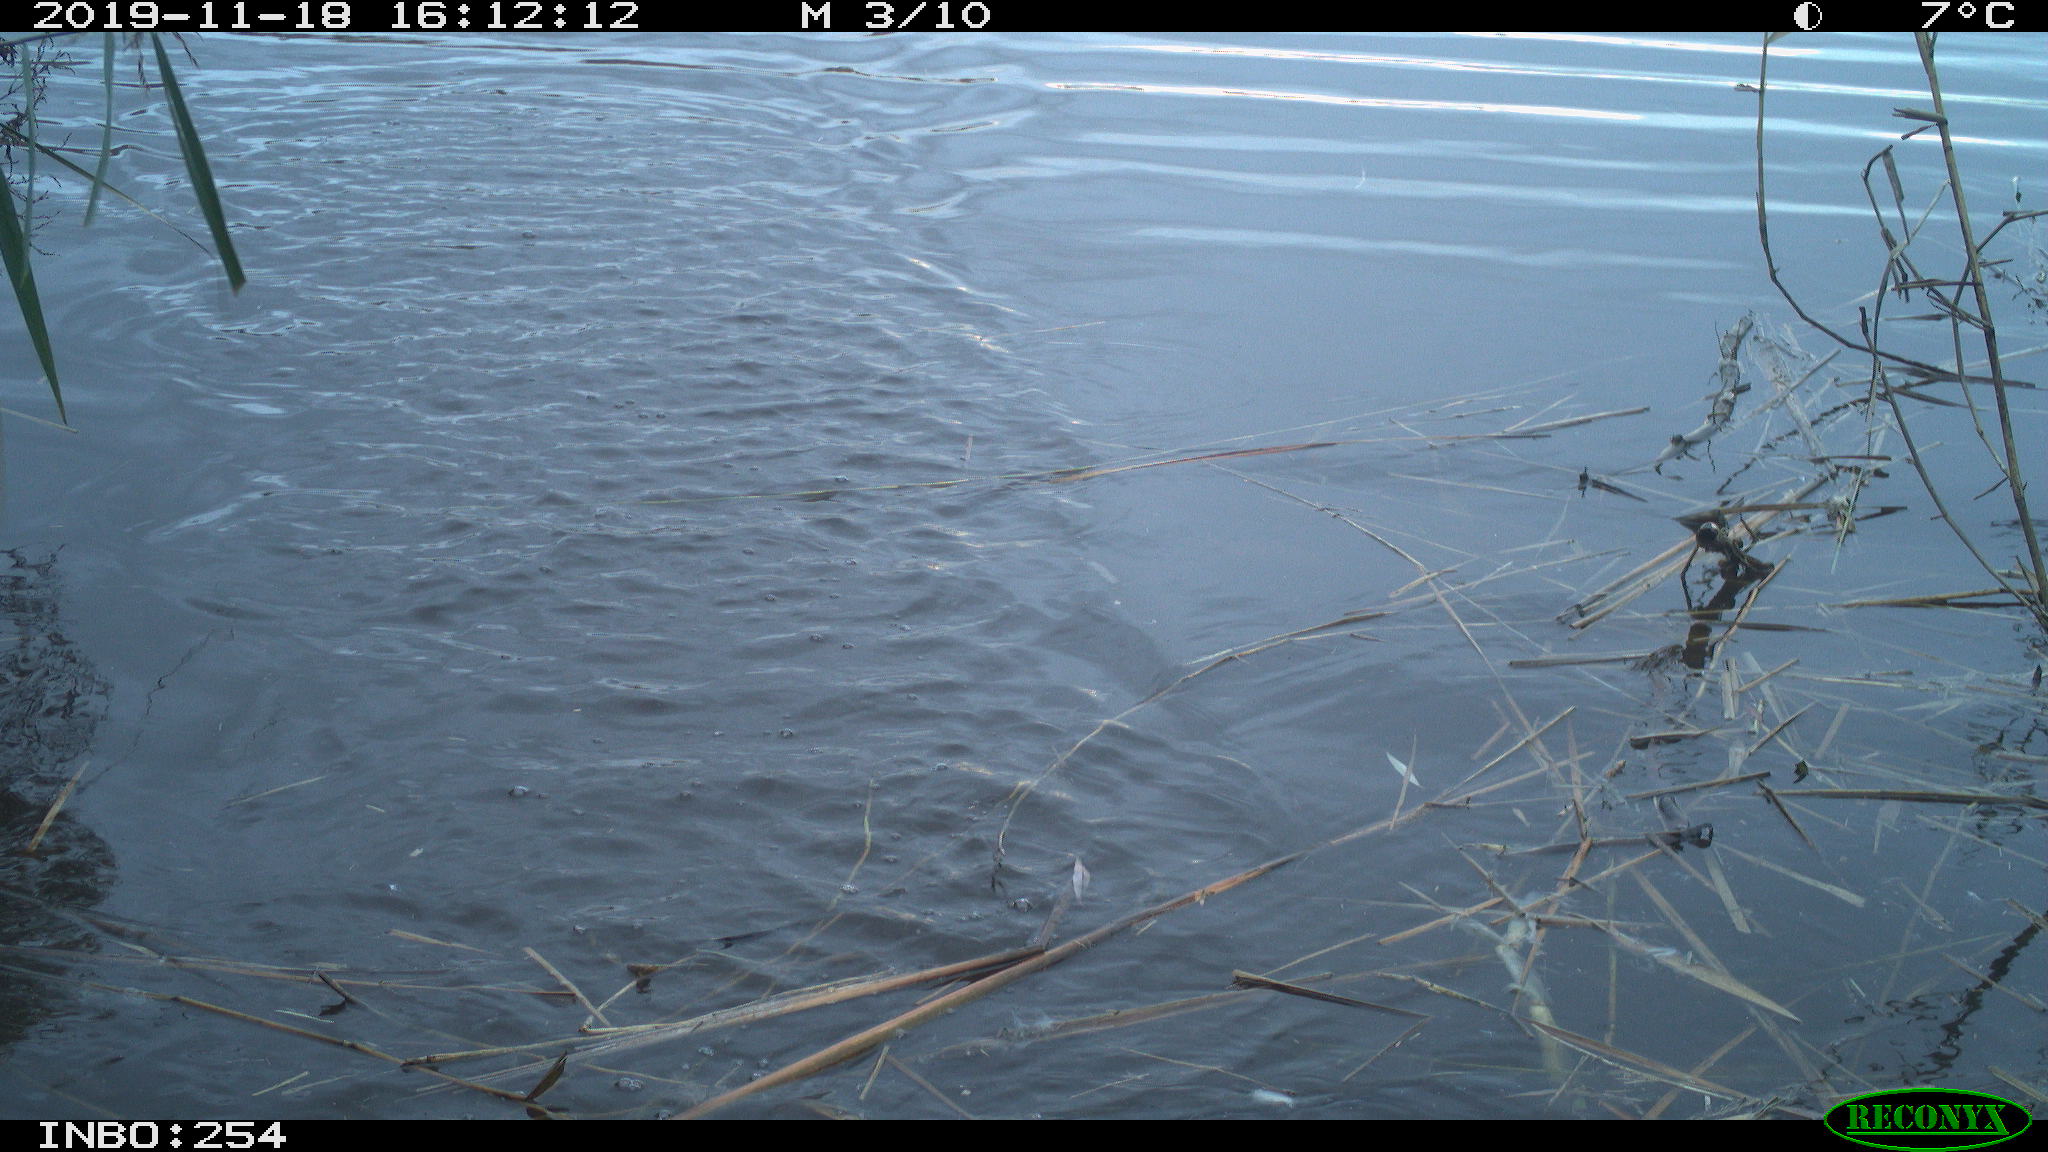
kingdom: Animalia
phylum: Chordata
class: Aves
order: Gruiformes
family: Rallidae
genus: Gallinula
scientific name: Gallinula chloropus
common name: Common moorhen
